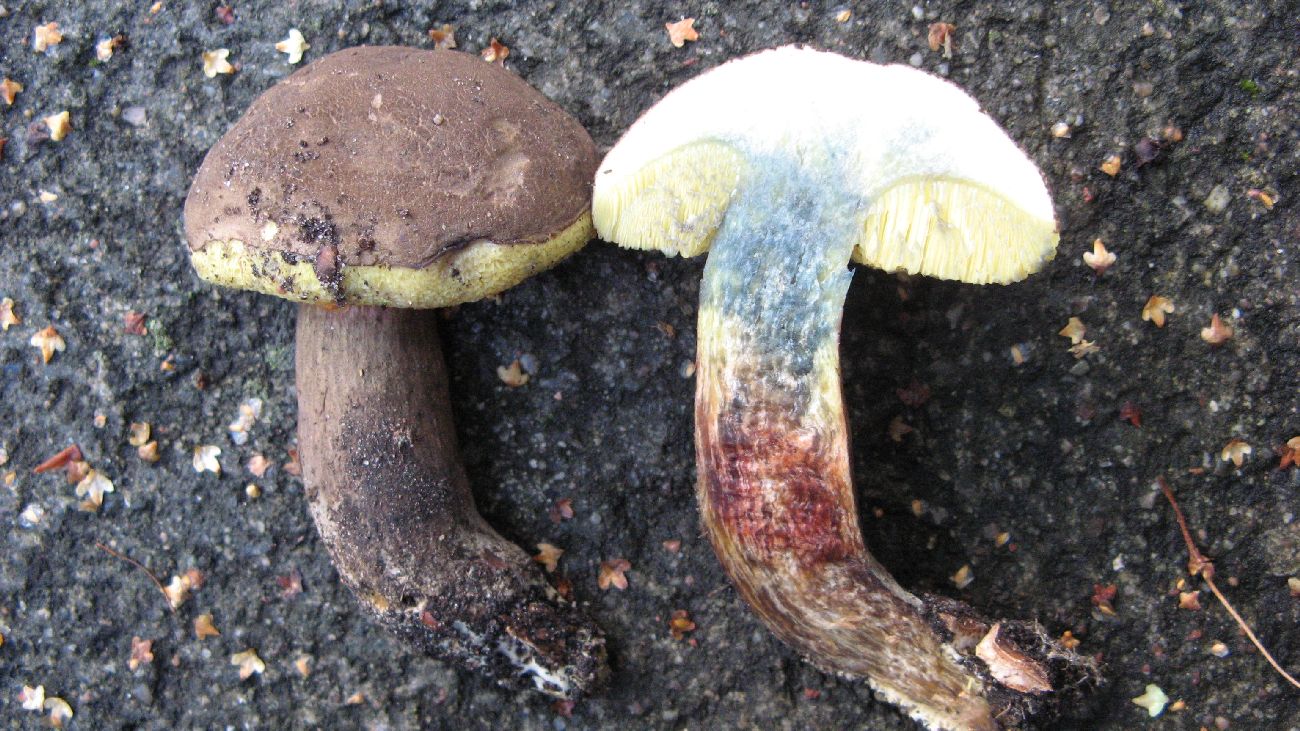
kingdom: Fungi
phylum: Basidiomycota
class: Agaricomycetes
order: Boletales
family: Boletaceae
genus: Xerocomellus
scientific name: Xerocomellus pruinatus
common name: dugget rørhat
